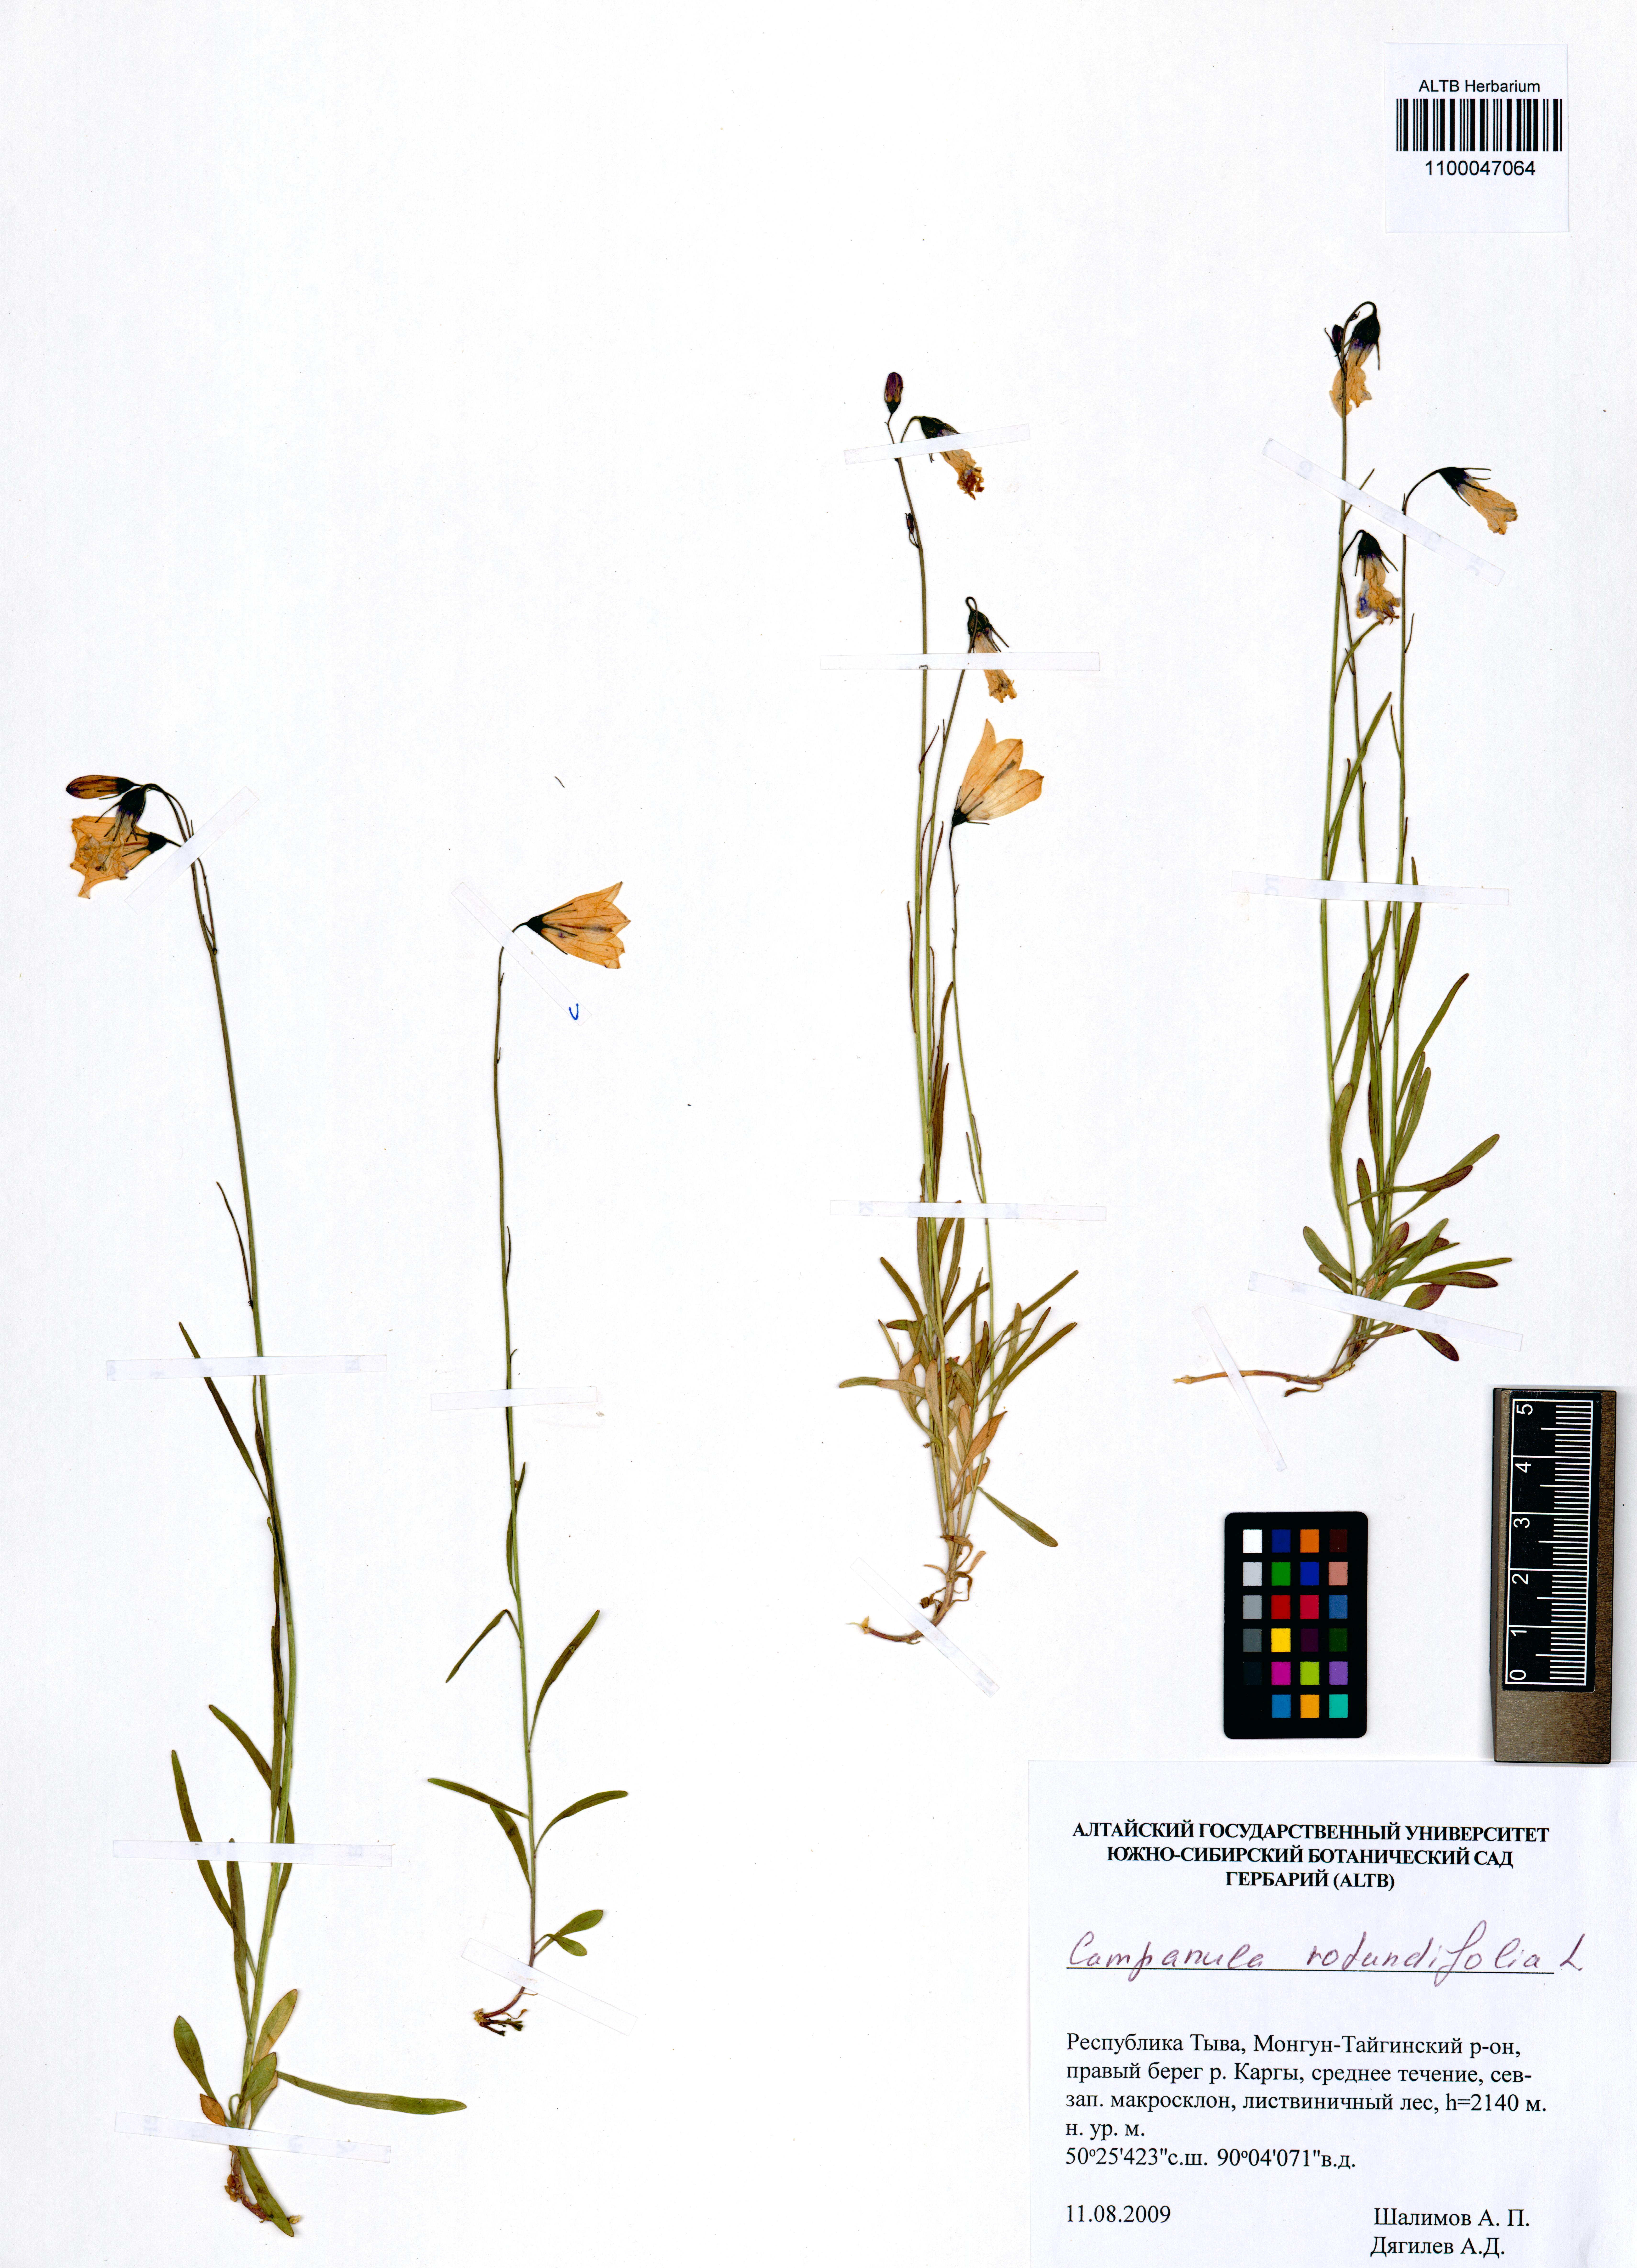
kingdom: Plantae
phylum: Tracheophyta
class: Magnoliopsida
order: Asterales
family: Campanulaceae
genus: Campanula
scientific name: Campanula rotundifolia
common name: Harebell
